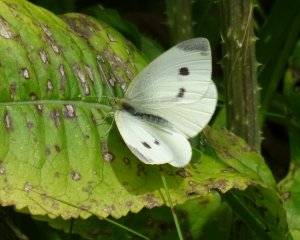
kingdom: Animalia
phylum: Arthropoda
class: Insecta
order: Lepidoptera
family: Pieridae
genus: Pieris
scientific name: Pieris rapae
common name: Cabbage White
